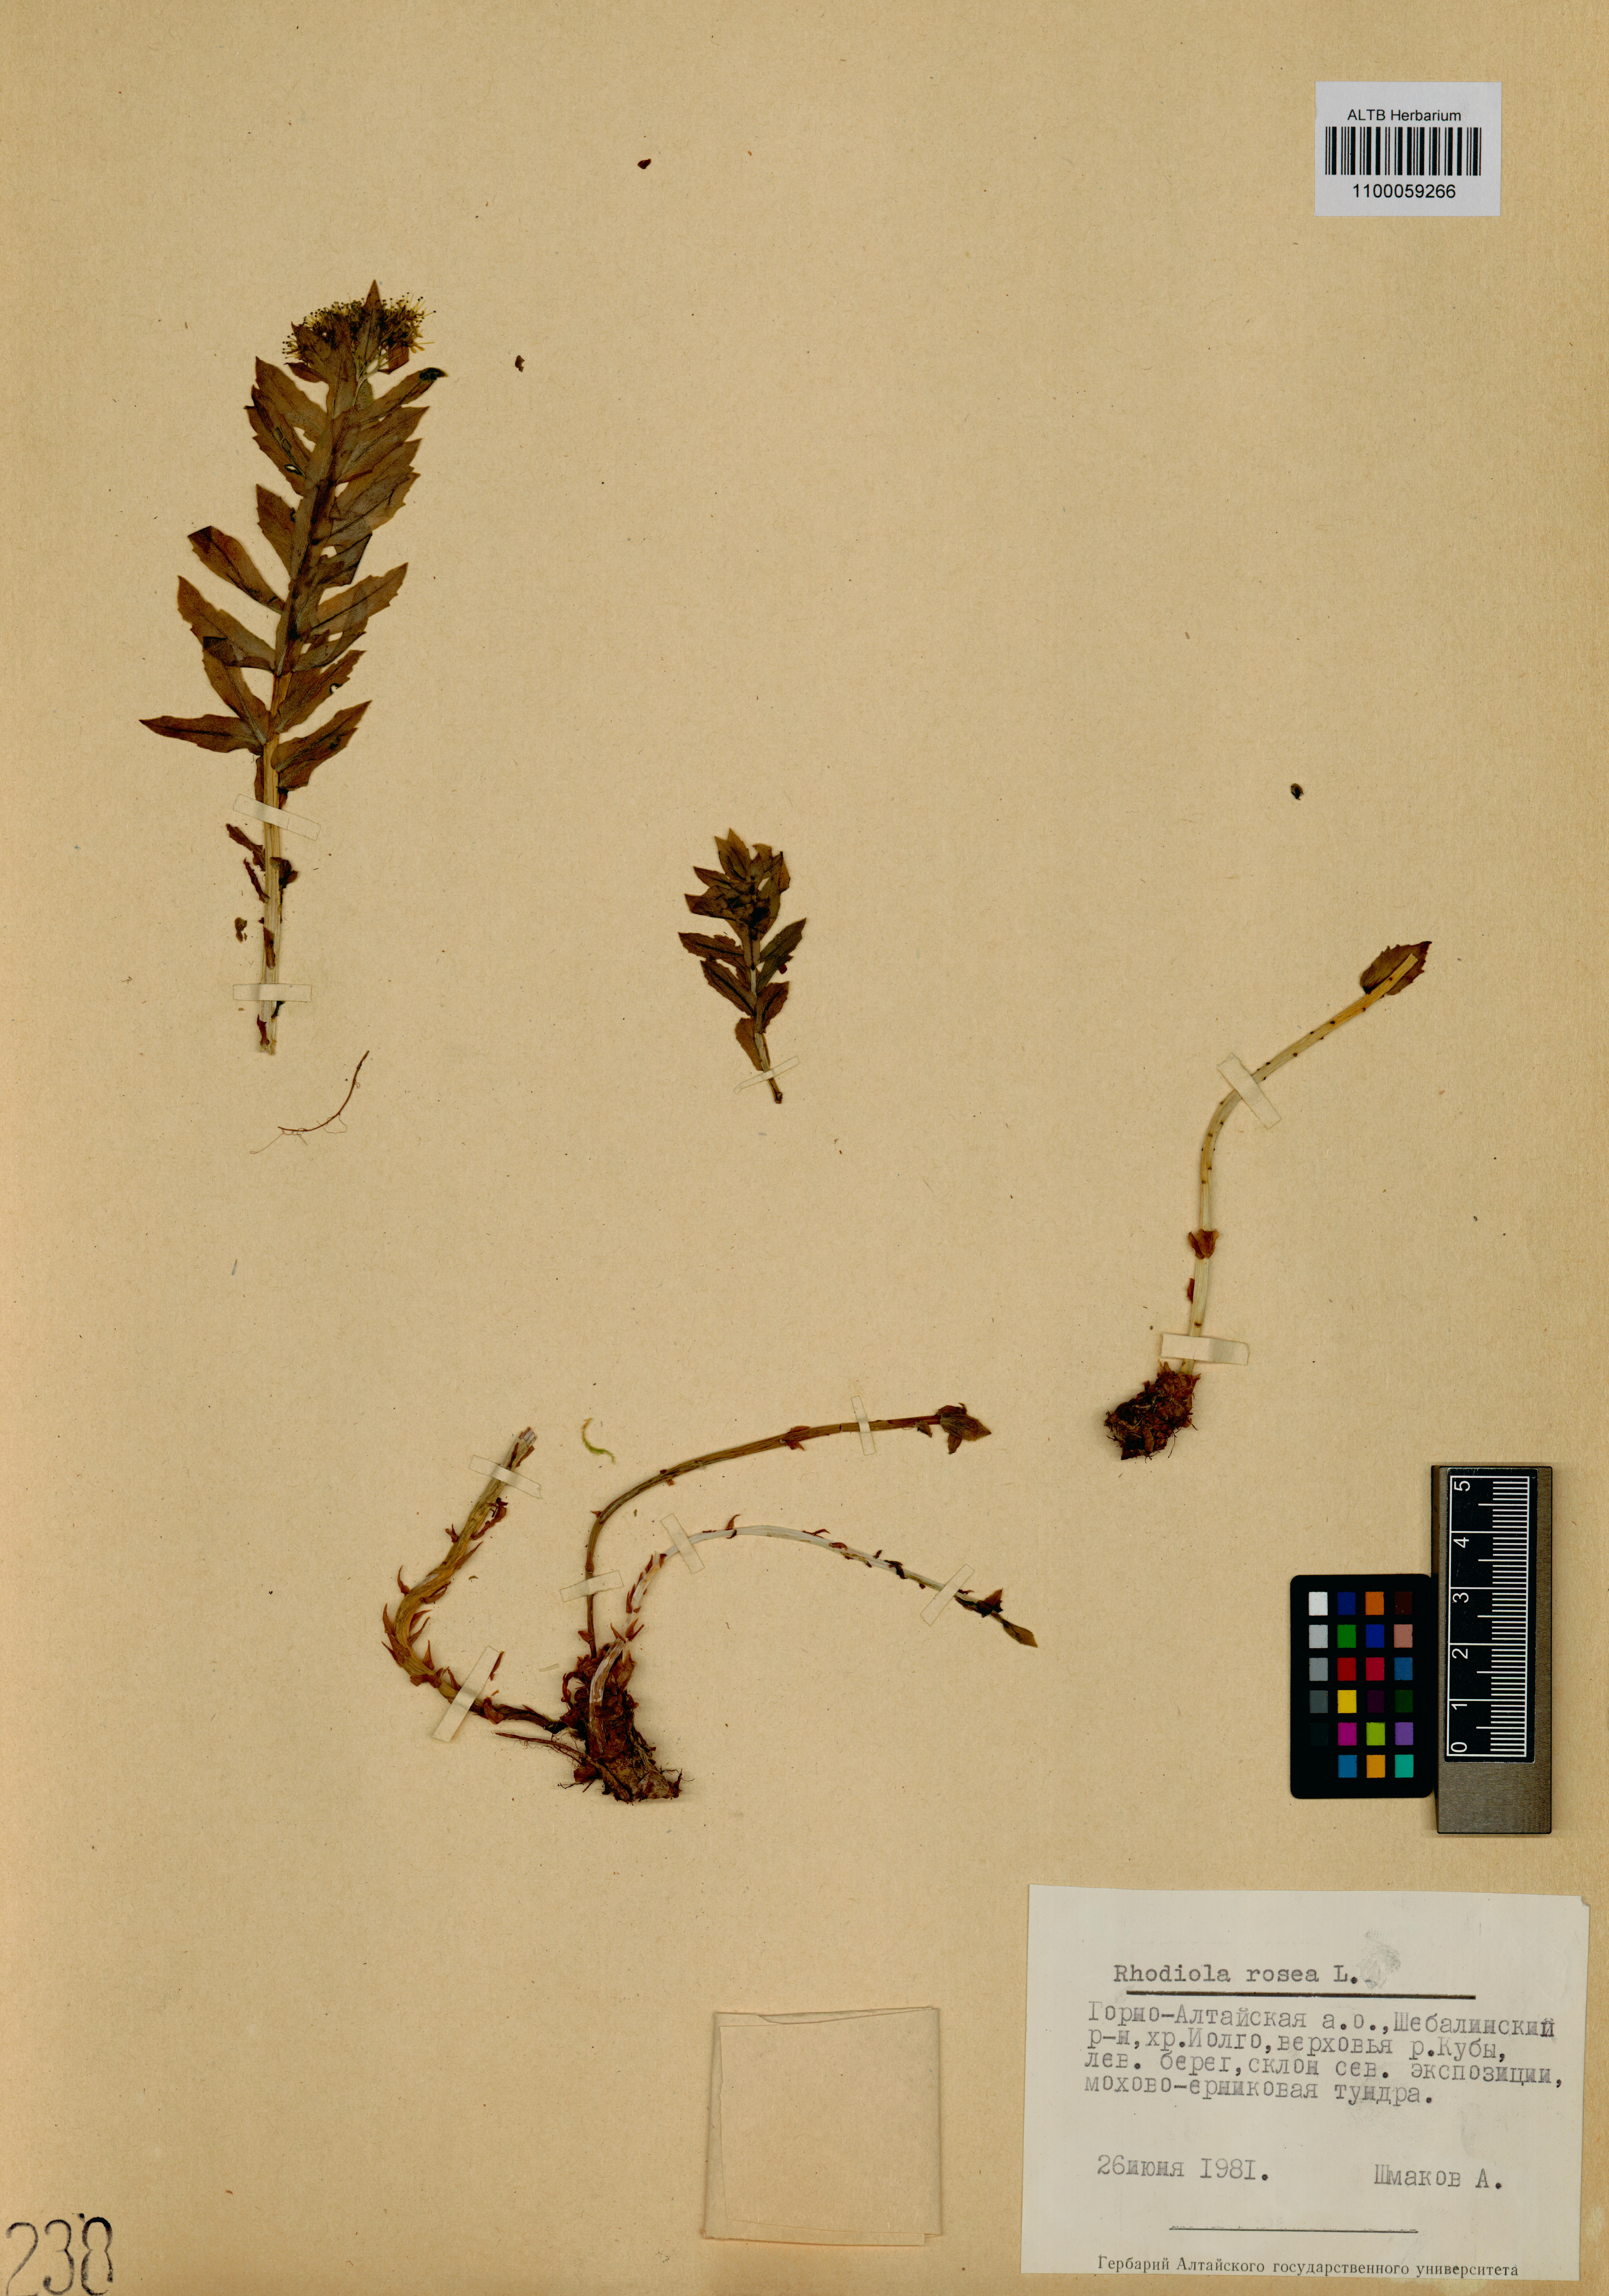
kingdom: Plantae
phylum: Tracheophyta
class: Magnoliopsida
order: Saxifragales
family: Crassulaceae
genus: Rhodiola
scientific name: Rhodiola rosea
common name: Roseroot
